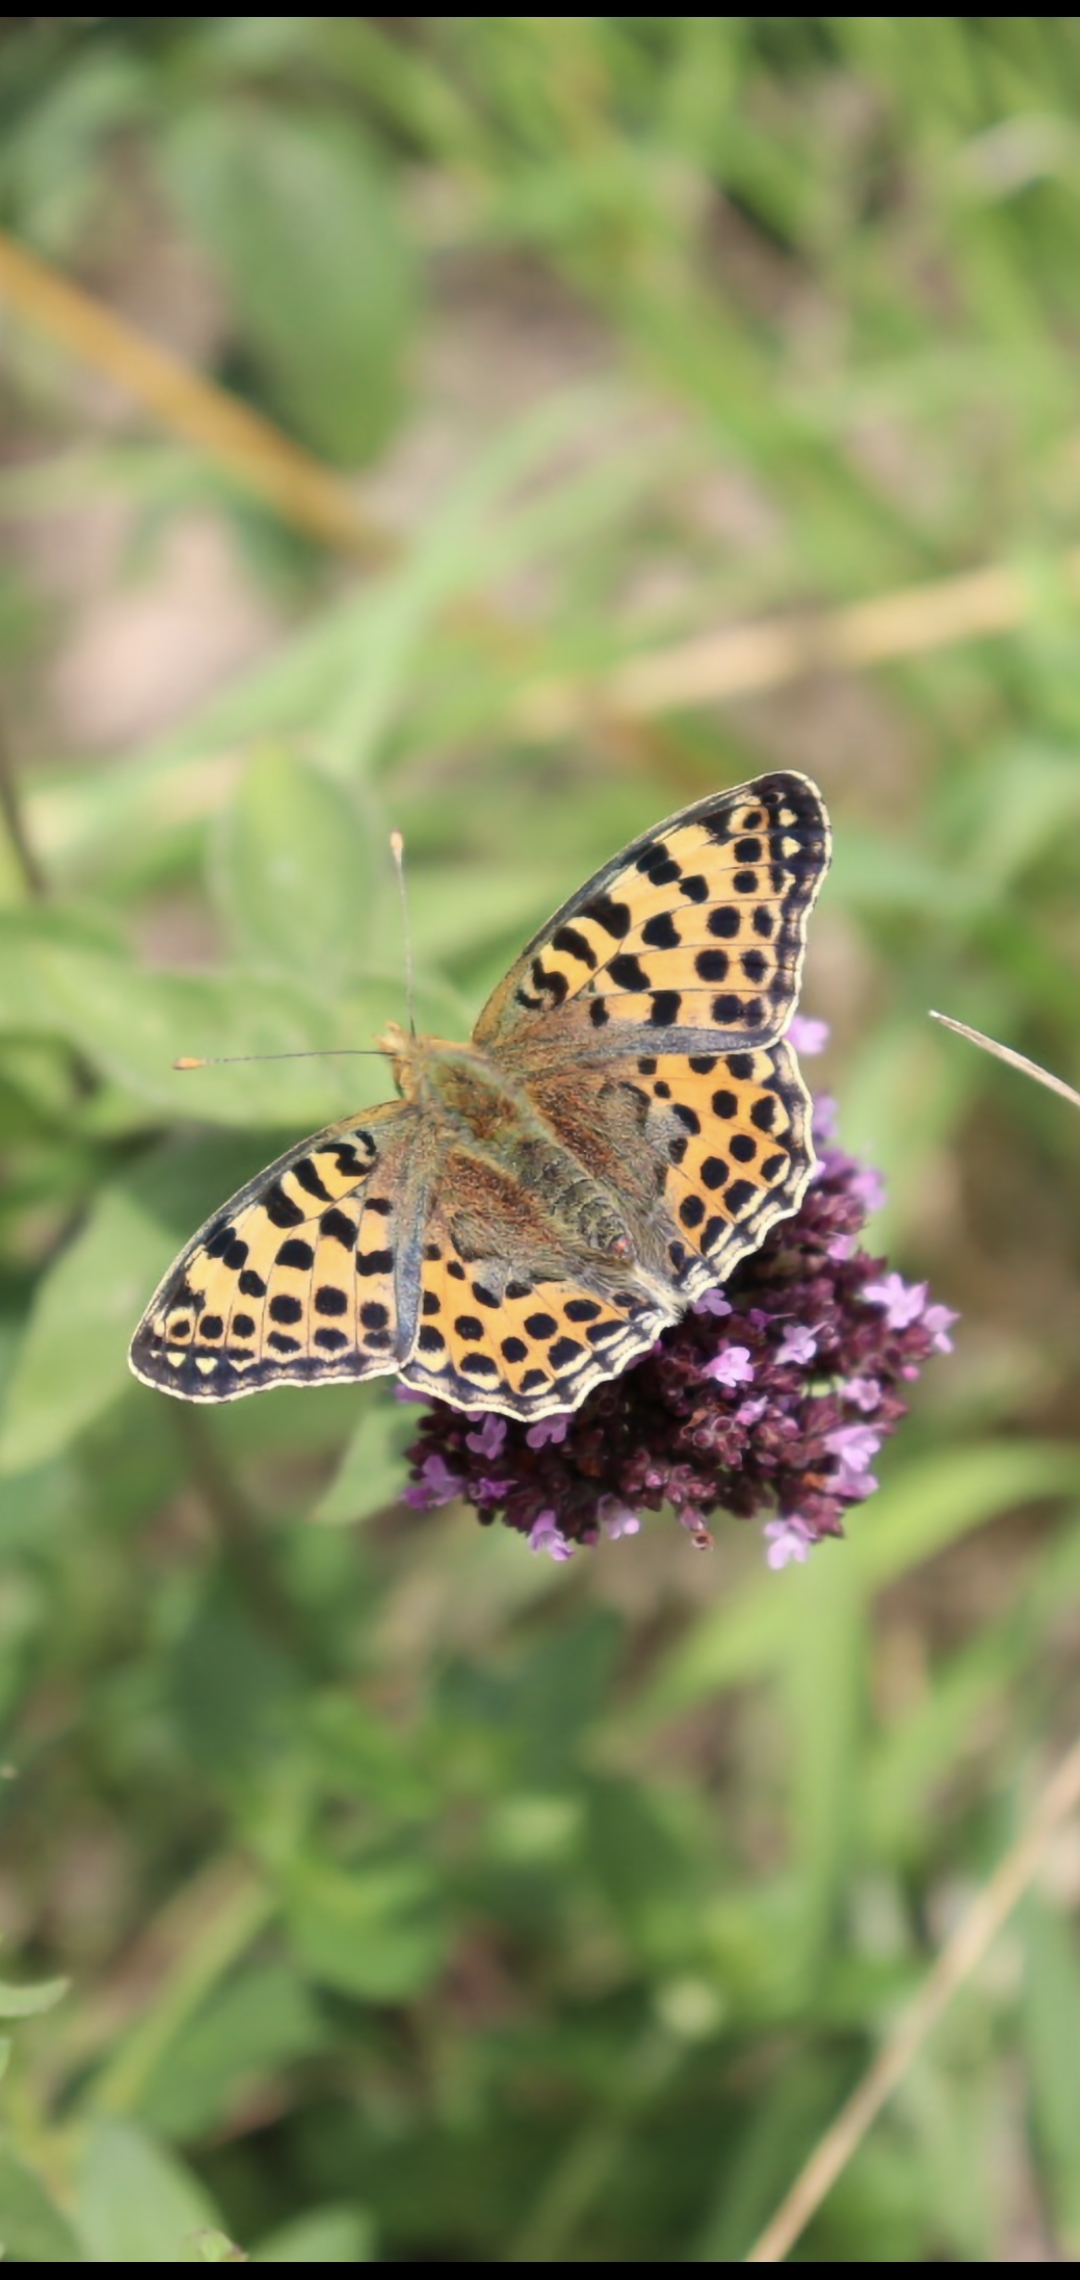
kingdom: Animalia
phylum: Arthropoda
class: Insecta
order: Lepidoptera
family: Nymphalidae
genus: Issoria
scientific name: Issoria lathonia
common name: Storplettet perlemorsommerfugl
